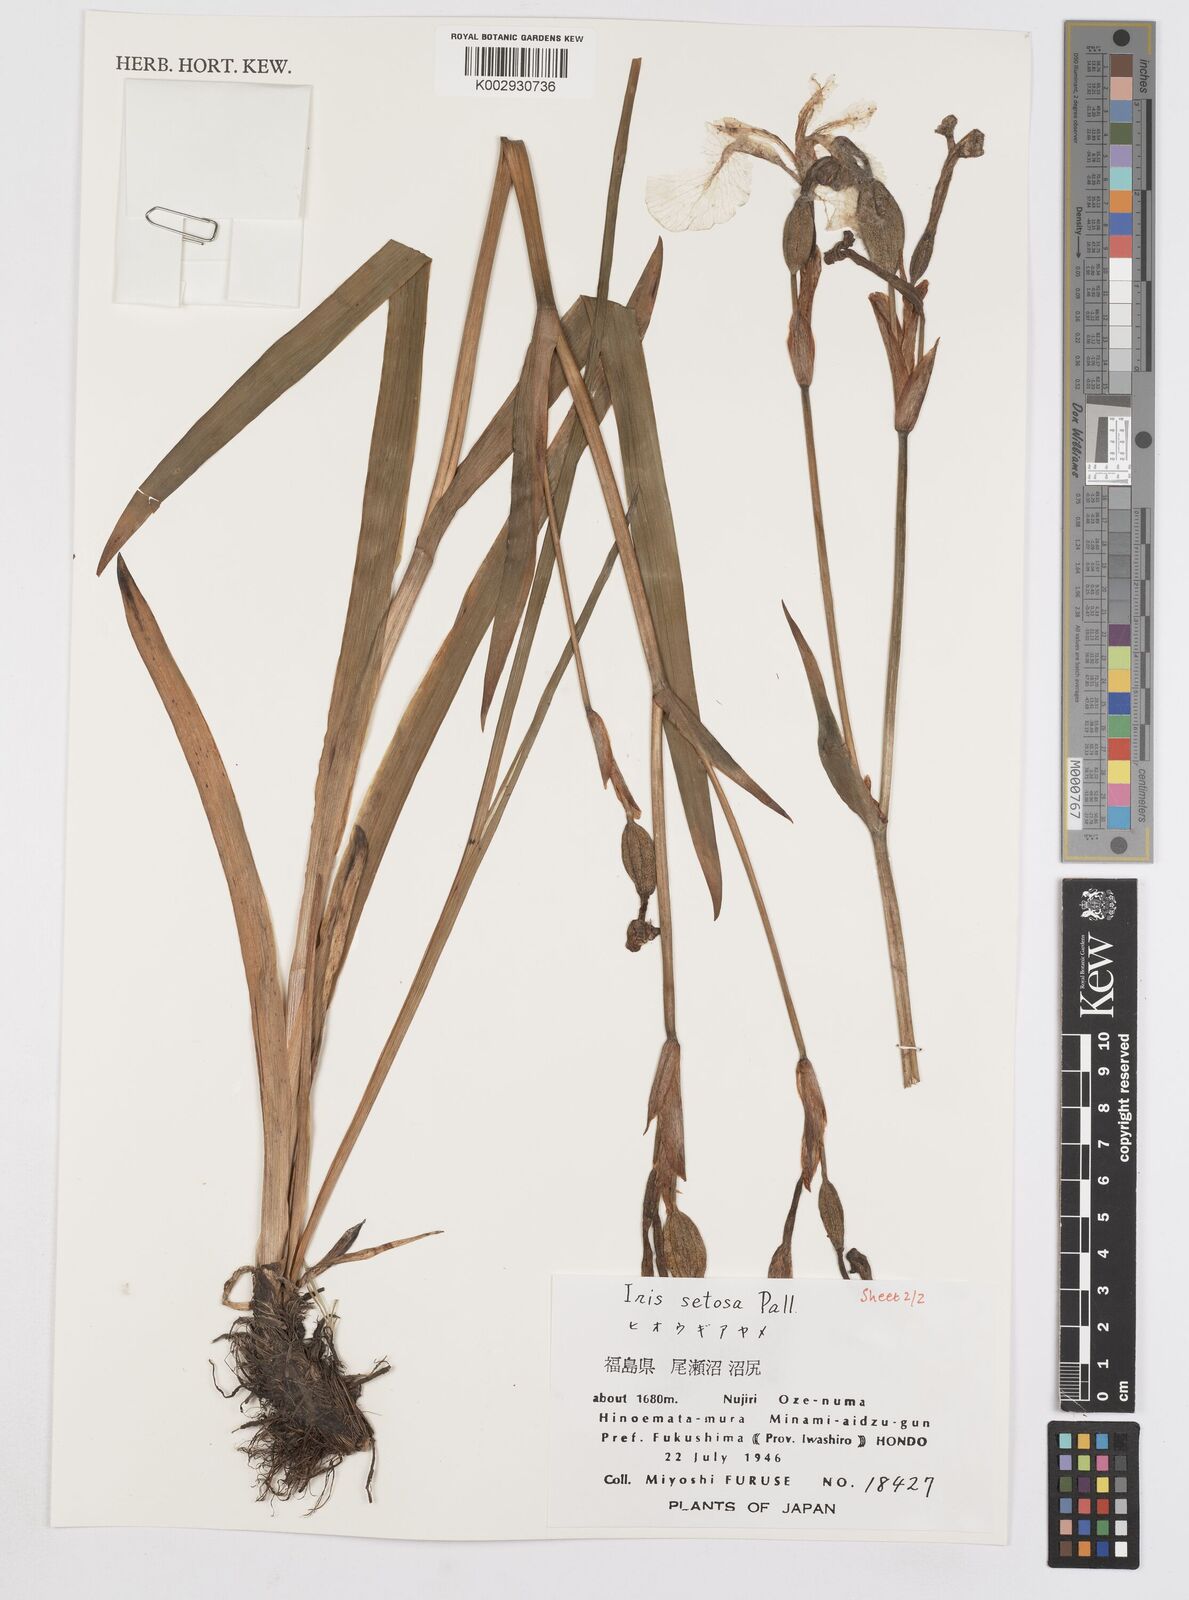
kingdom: Plantae
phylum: Tracheophyta
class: Liliopsida
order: Asparagales
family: Iridaceae
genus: Iris
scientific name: Iris setosa
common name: Arctic blue flag
